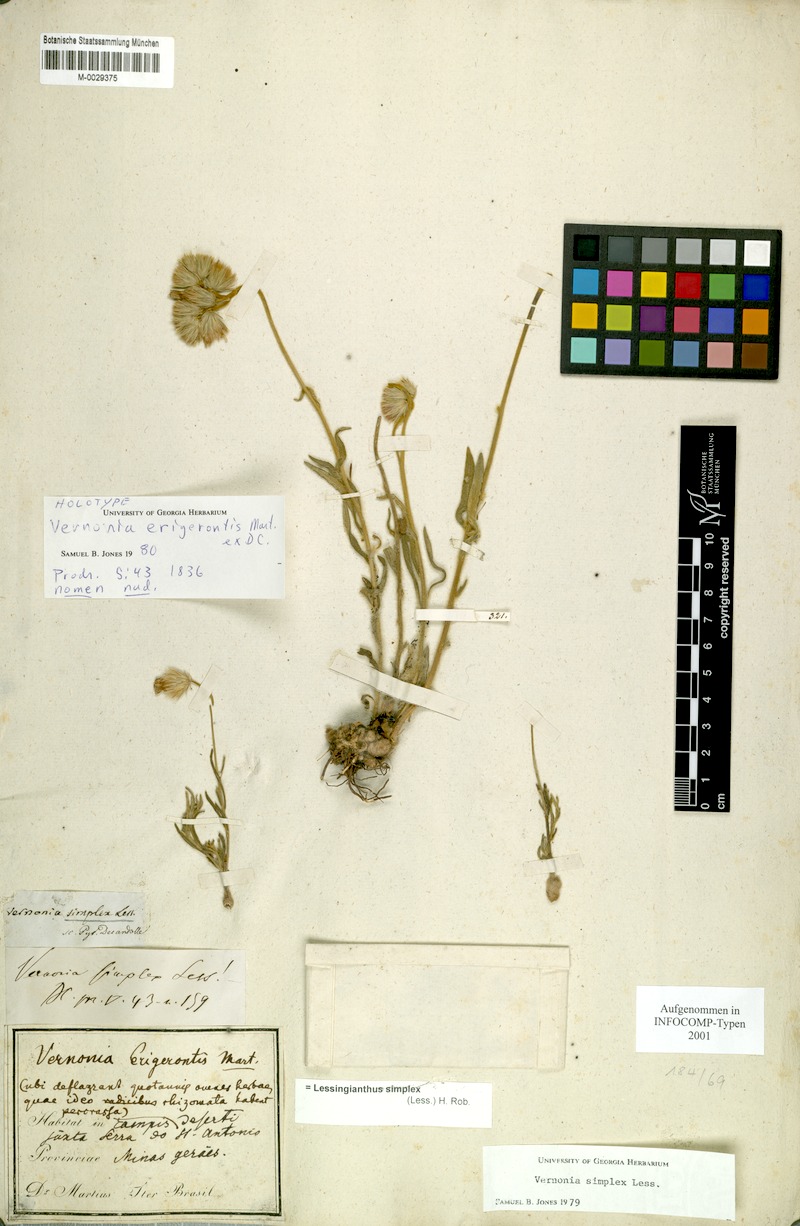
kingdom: Plantae
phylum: Tracheophyta
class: Magnoliopsida
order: Asterales
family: Asteraceae
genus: Chrysolaena
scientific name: Chrysolaena simplex
